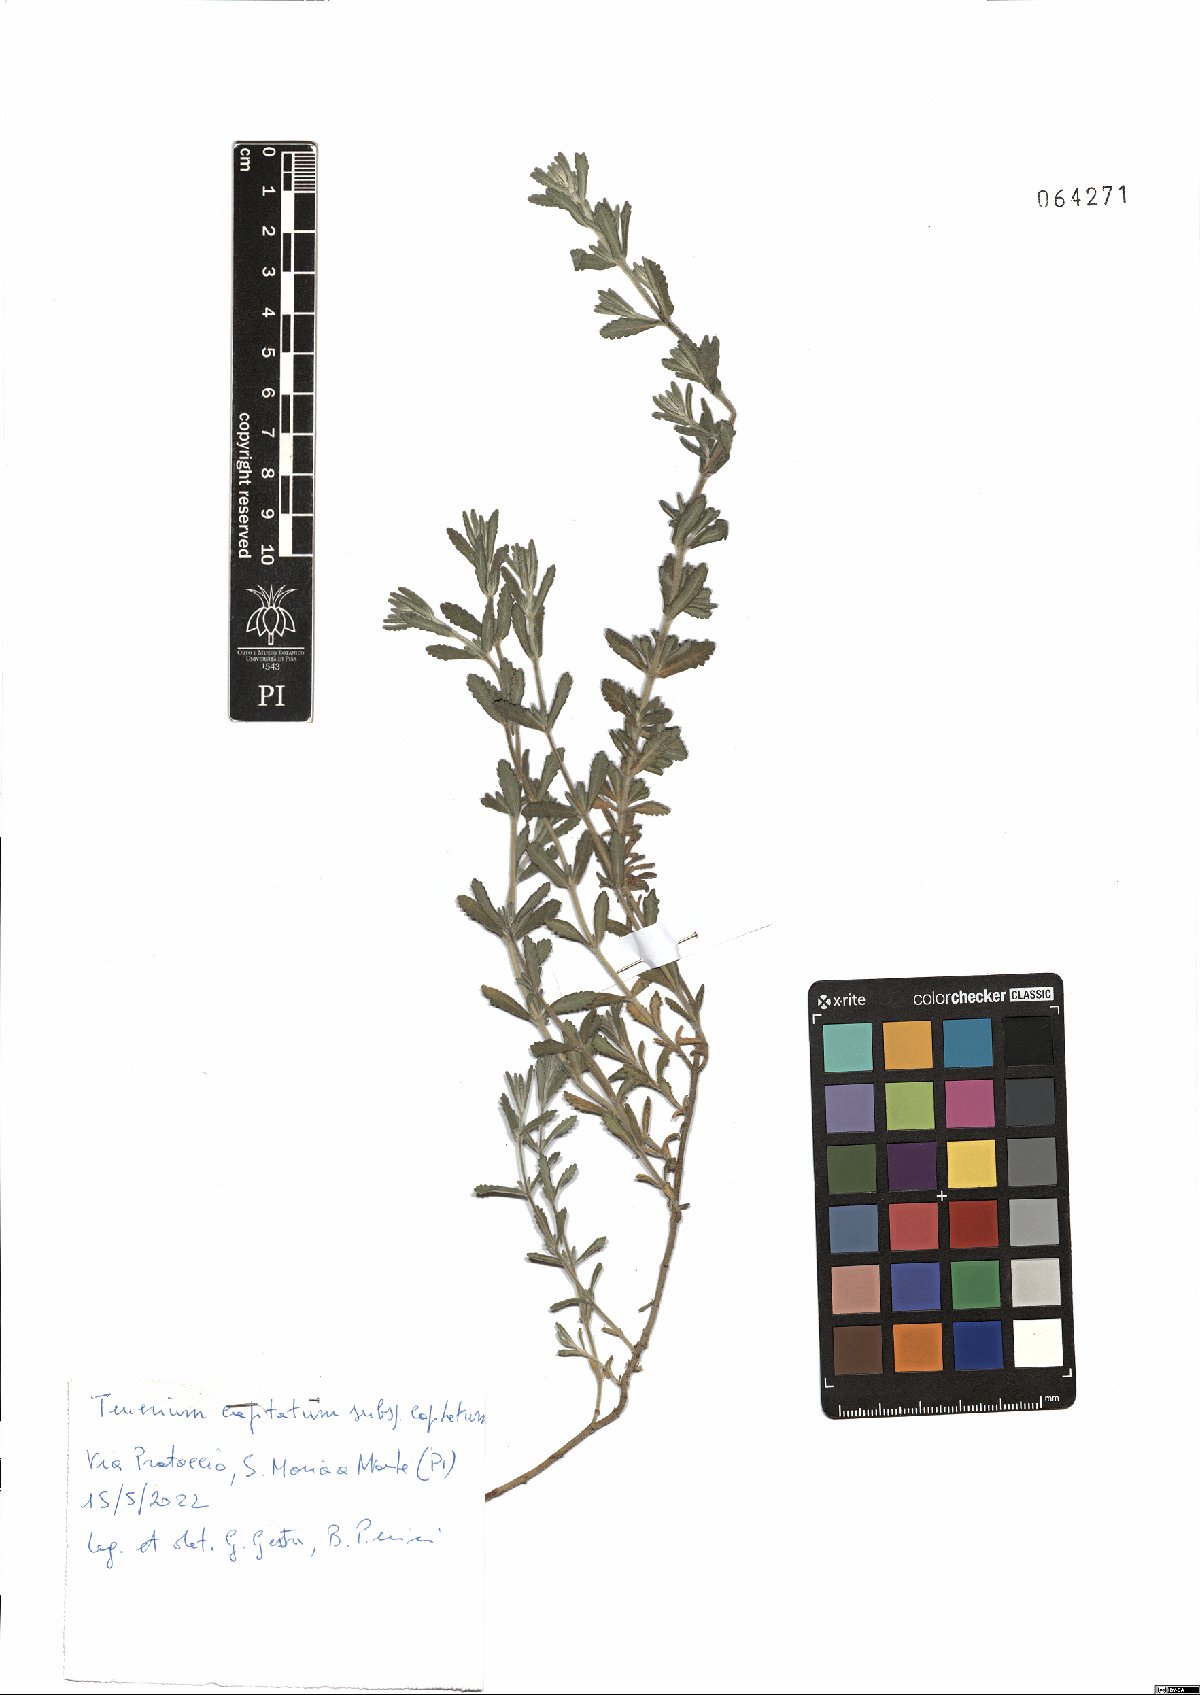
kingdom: Plantae
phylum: Tracheophyta
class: Magnoliopsida
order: Lamiales
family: Lamiaceae
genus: Teucrium
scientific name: Teucrium capitatum
